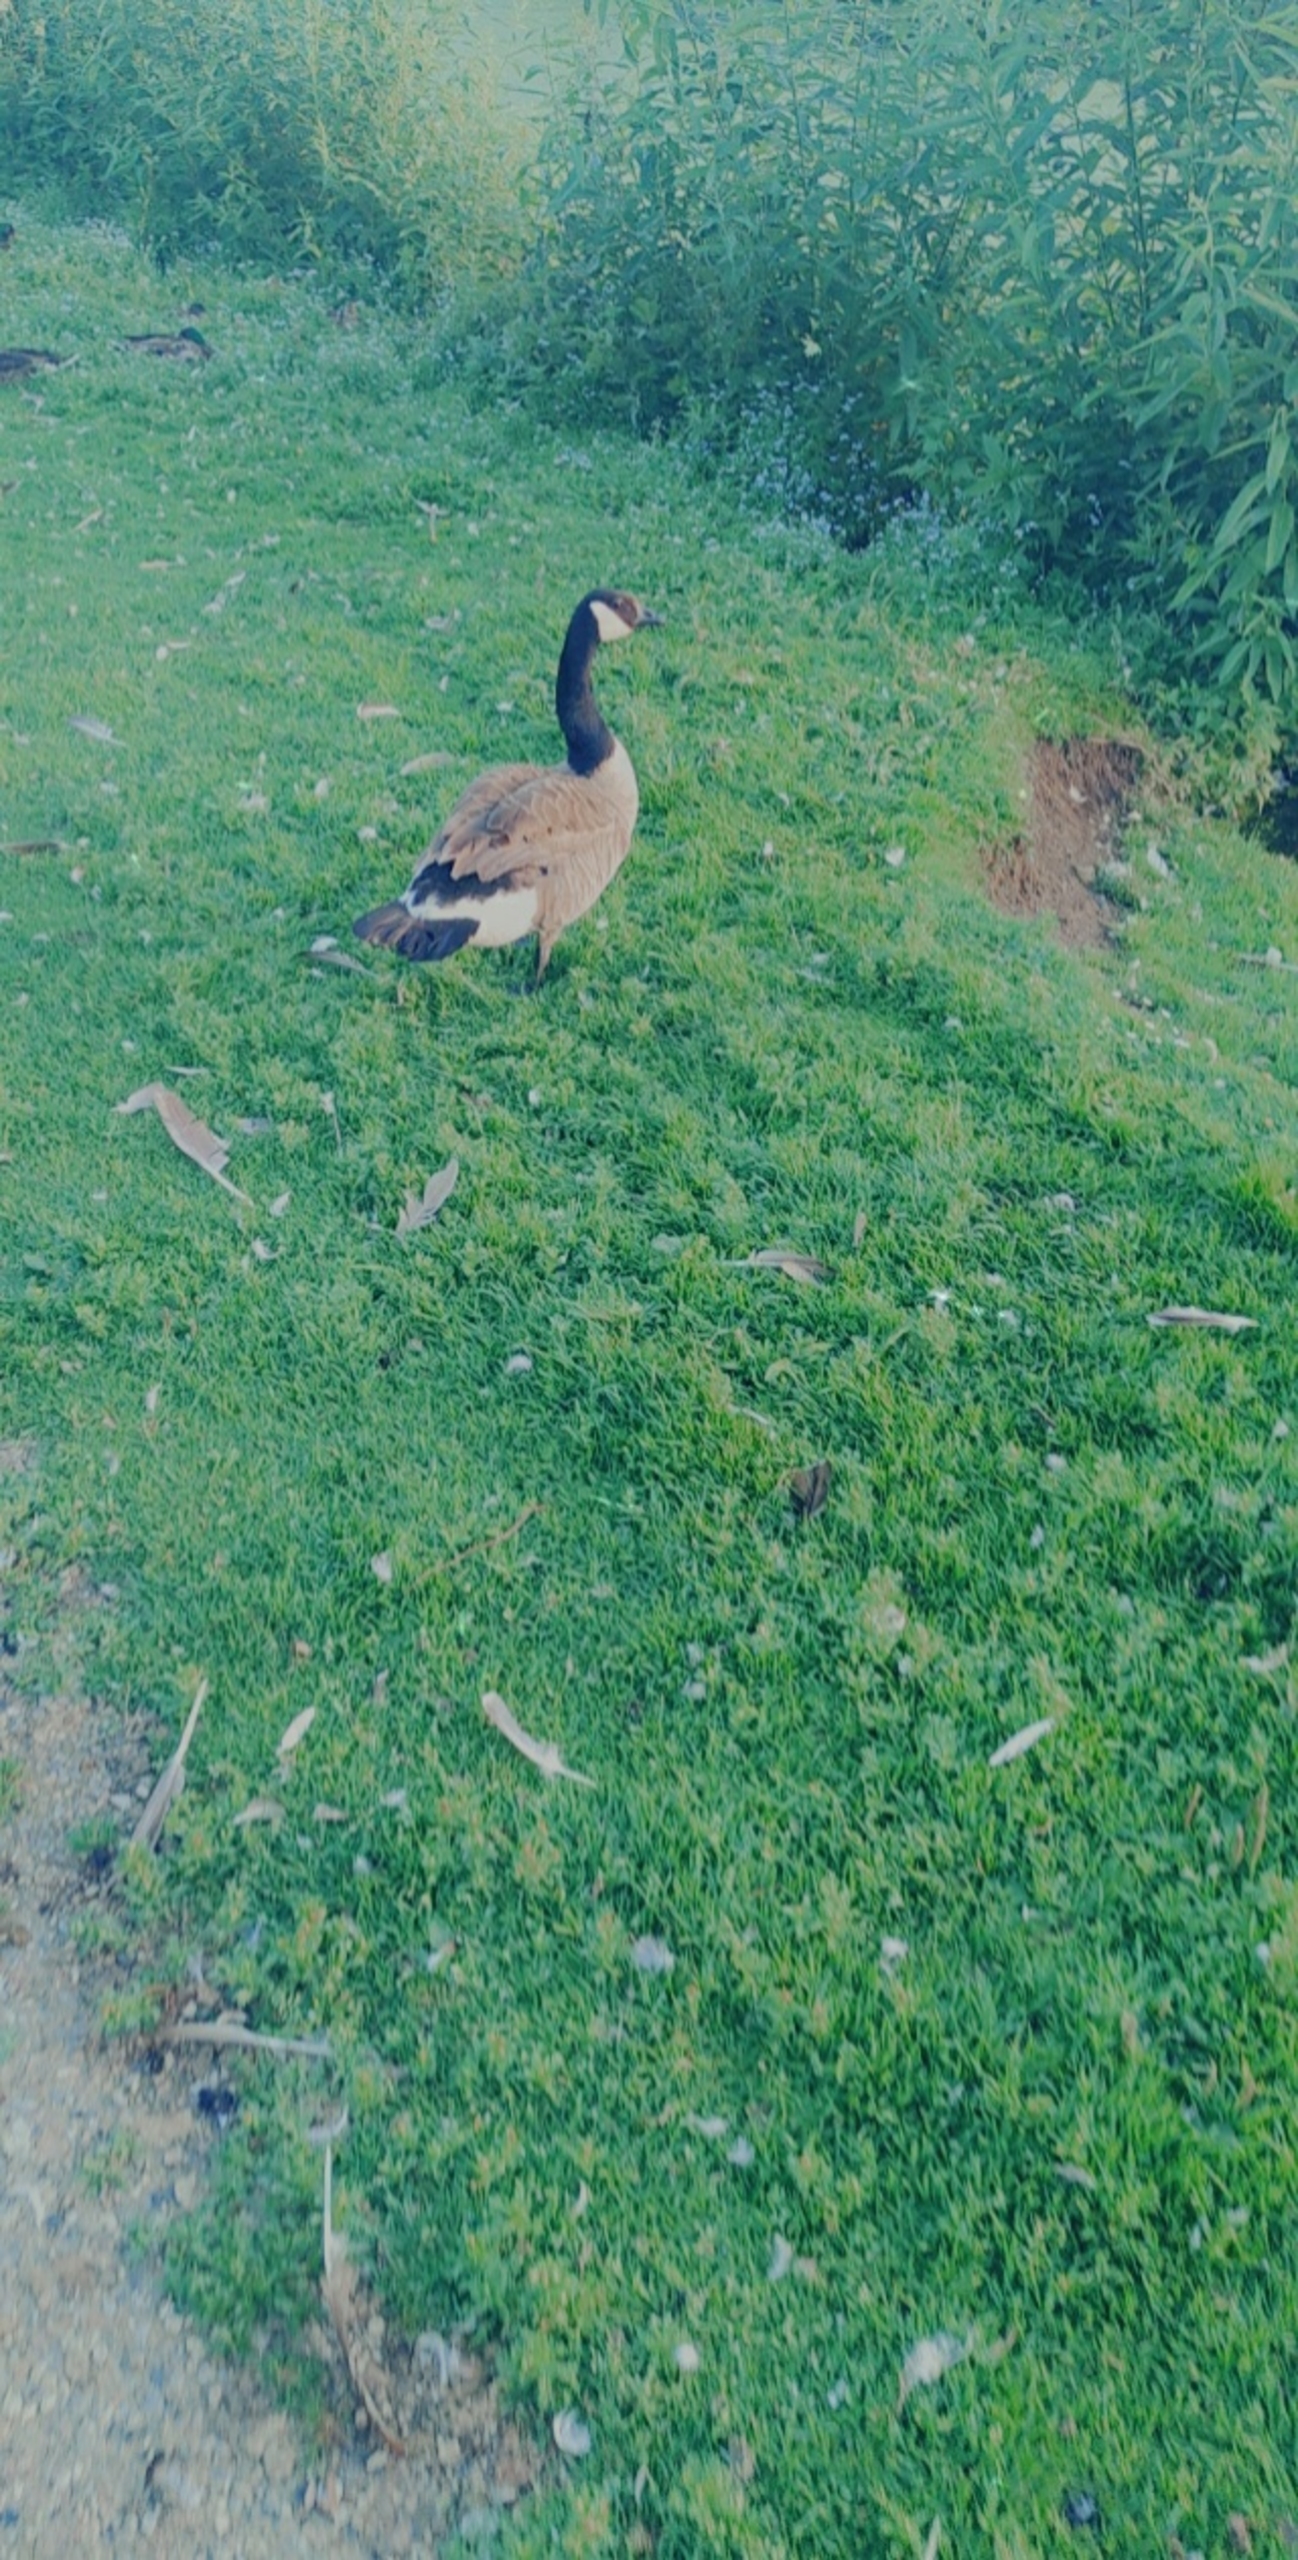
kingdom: Animalia
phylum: Chordata
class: Aves
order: Anseriformes
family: Anatidae
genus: Branta
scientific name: Branta canadensis
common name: Canadagås
